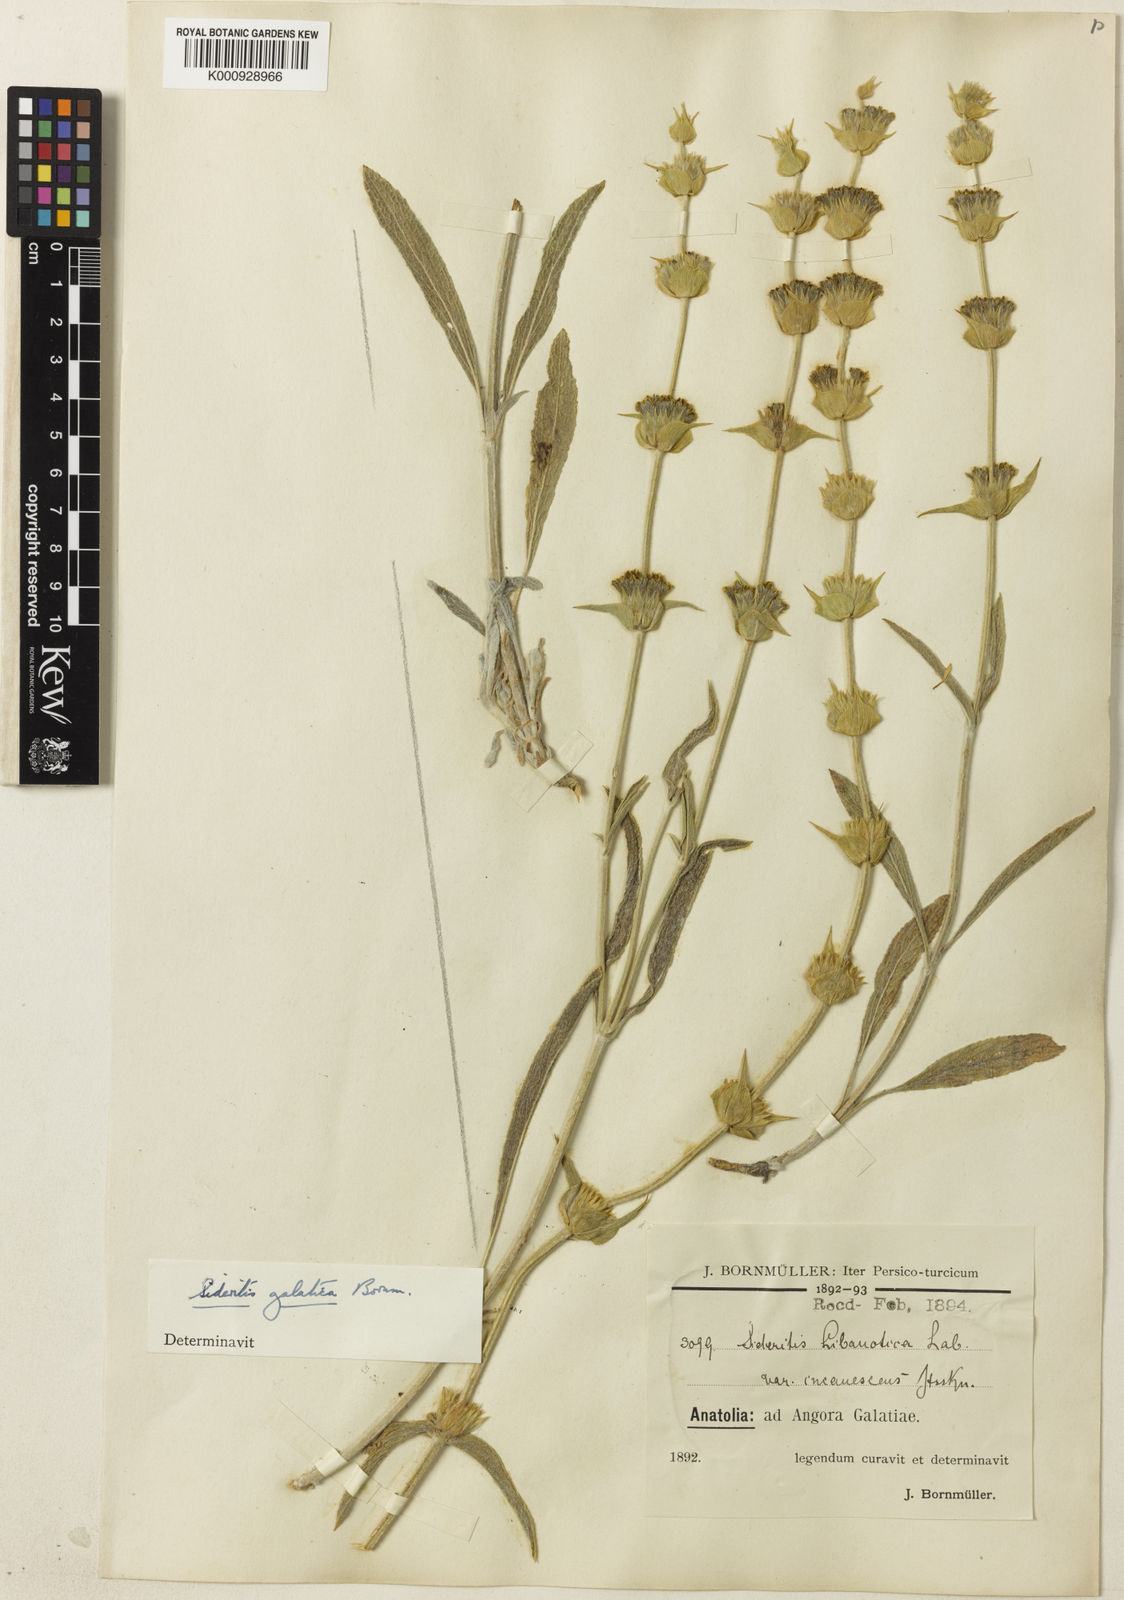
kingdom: Plantae
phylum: Tracheophyta
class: Magnoliopsida
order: Lamiales
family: Lamiaceae
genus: Sideritis
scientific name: Sideritis pisidica
